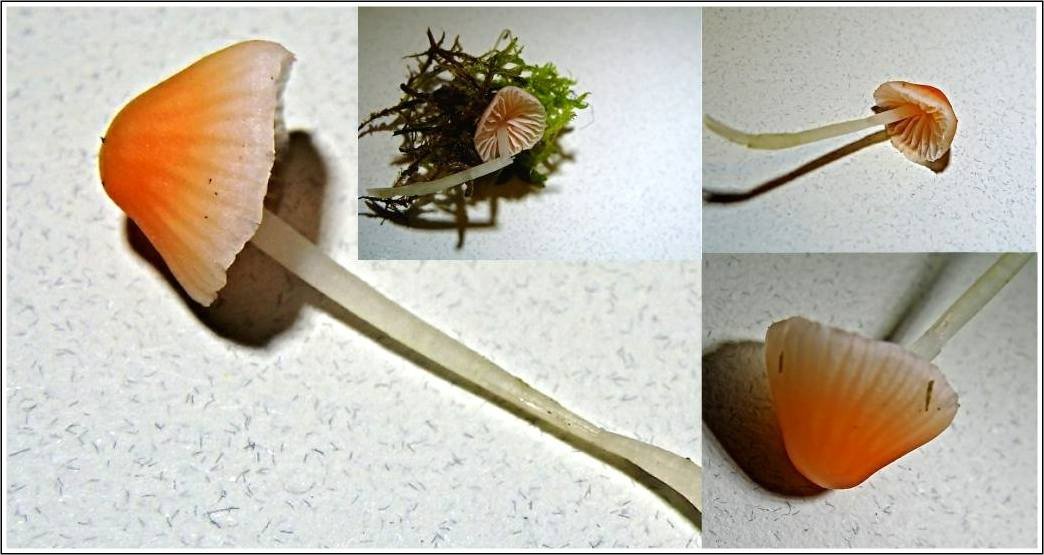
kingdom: Fungi
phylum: Basidiomycota
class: Agaricomycetes
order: Agaricales
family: Mycenaceae
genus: Atheniella
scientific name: Atheniella adonis
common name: rønnerød huesvamp
